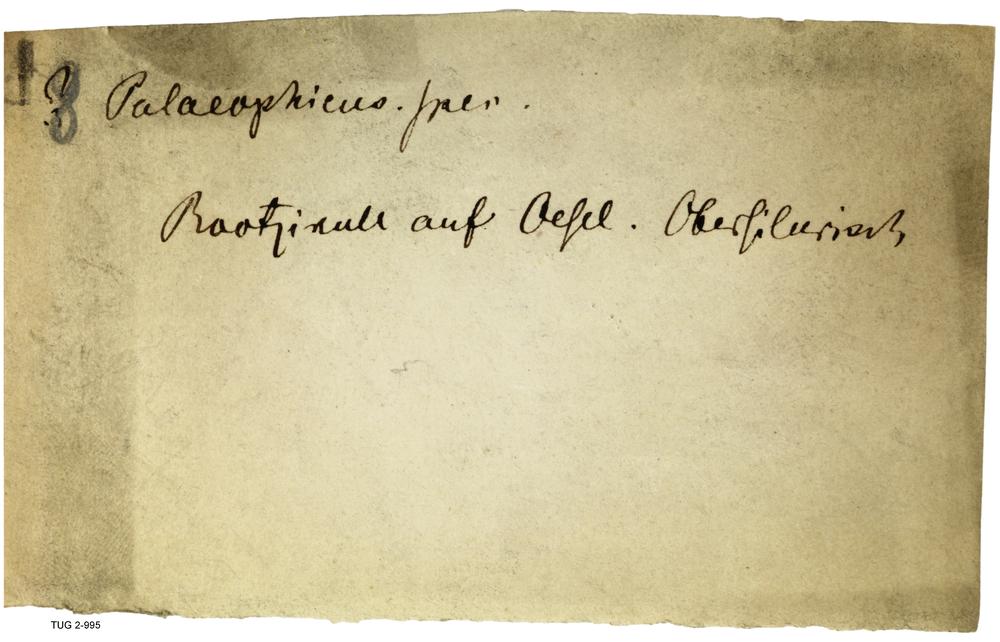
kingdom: Animalia
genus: Planolites
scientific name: Planolites
